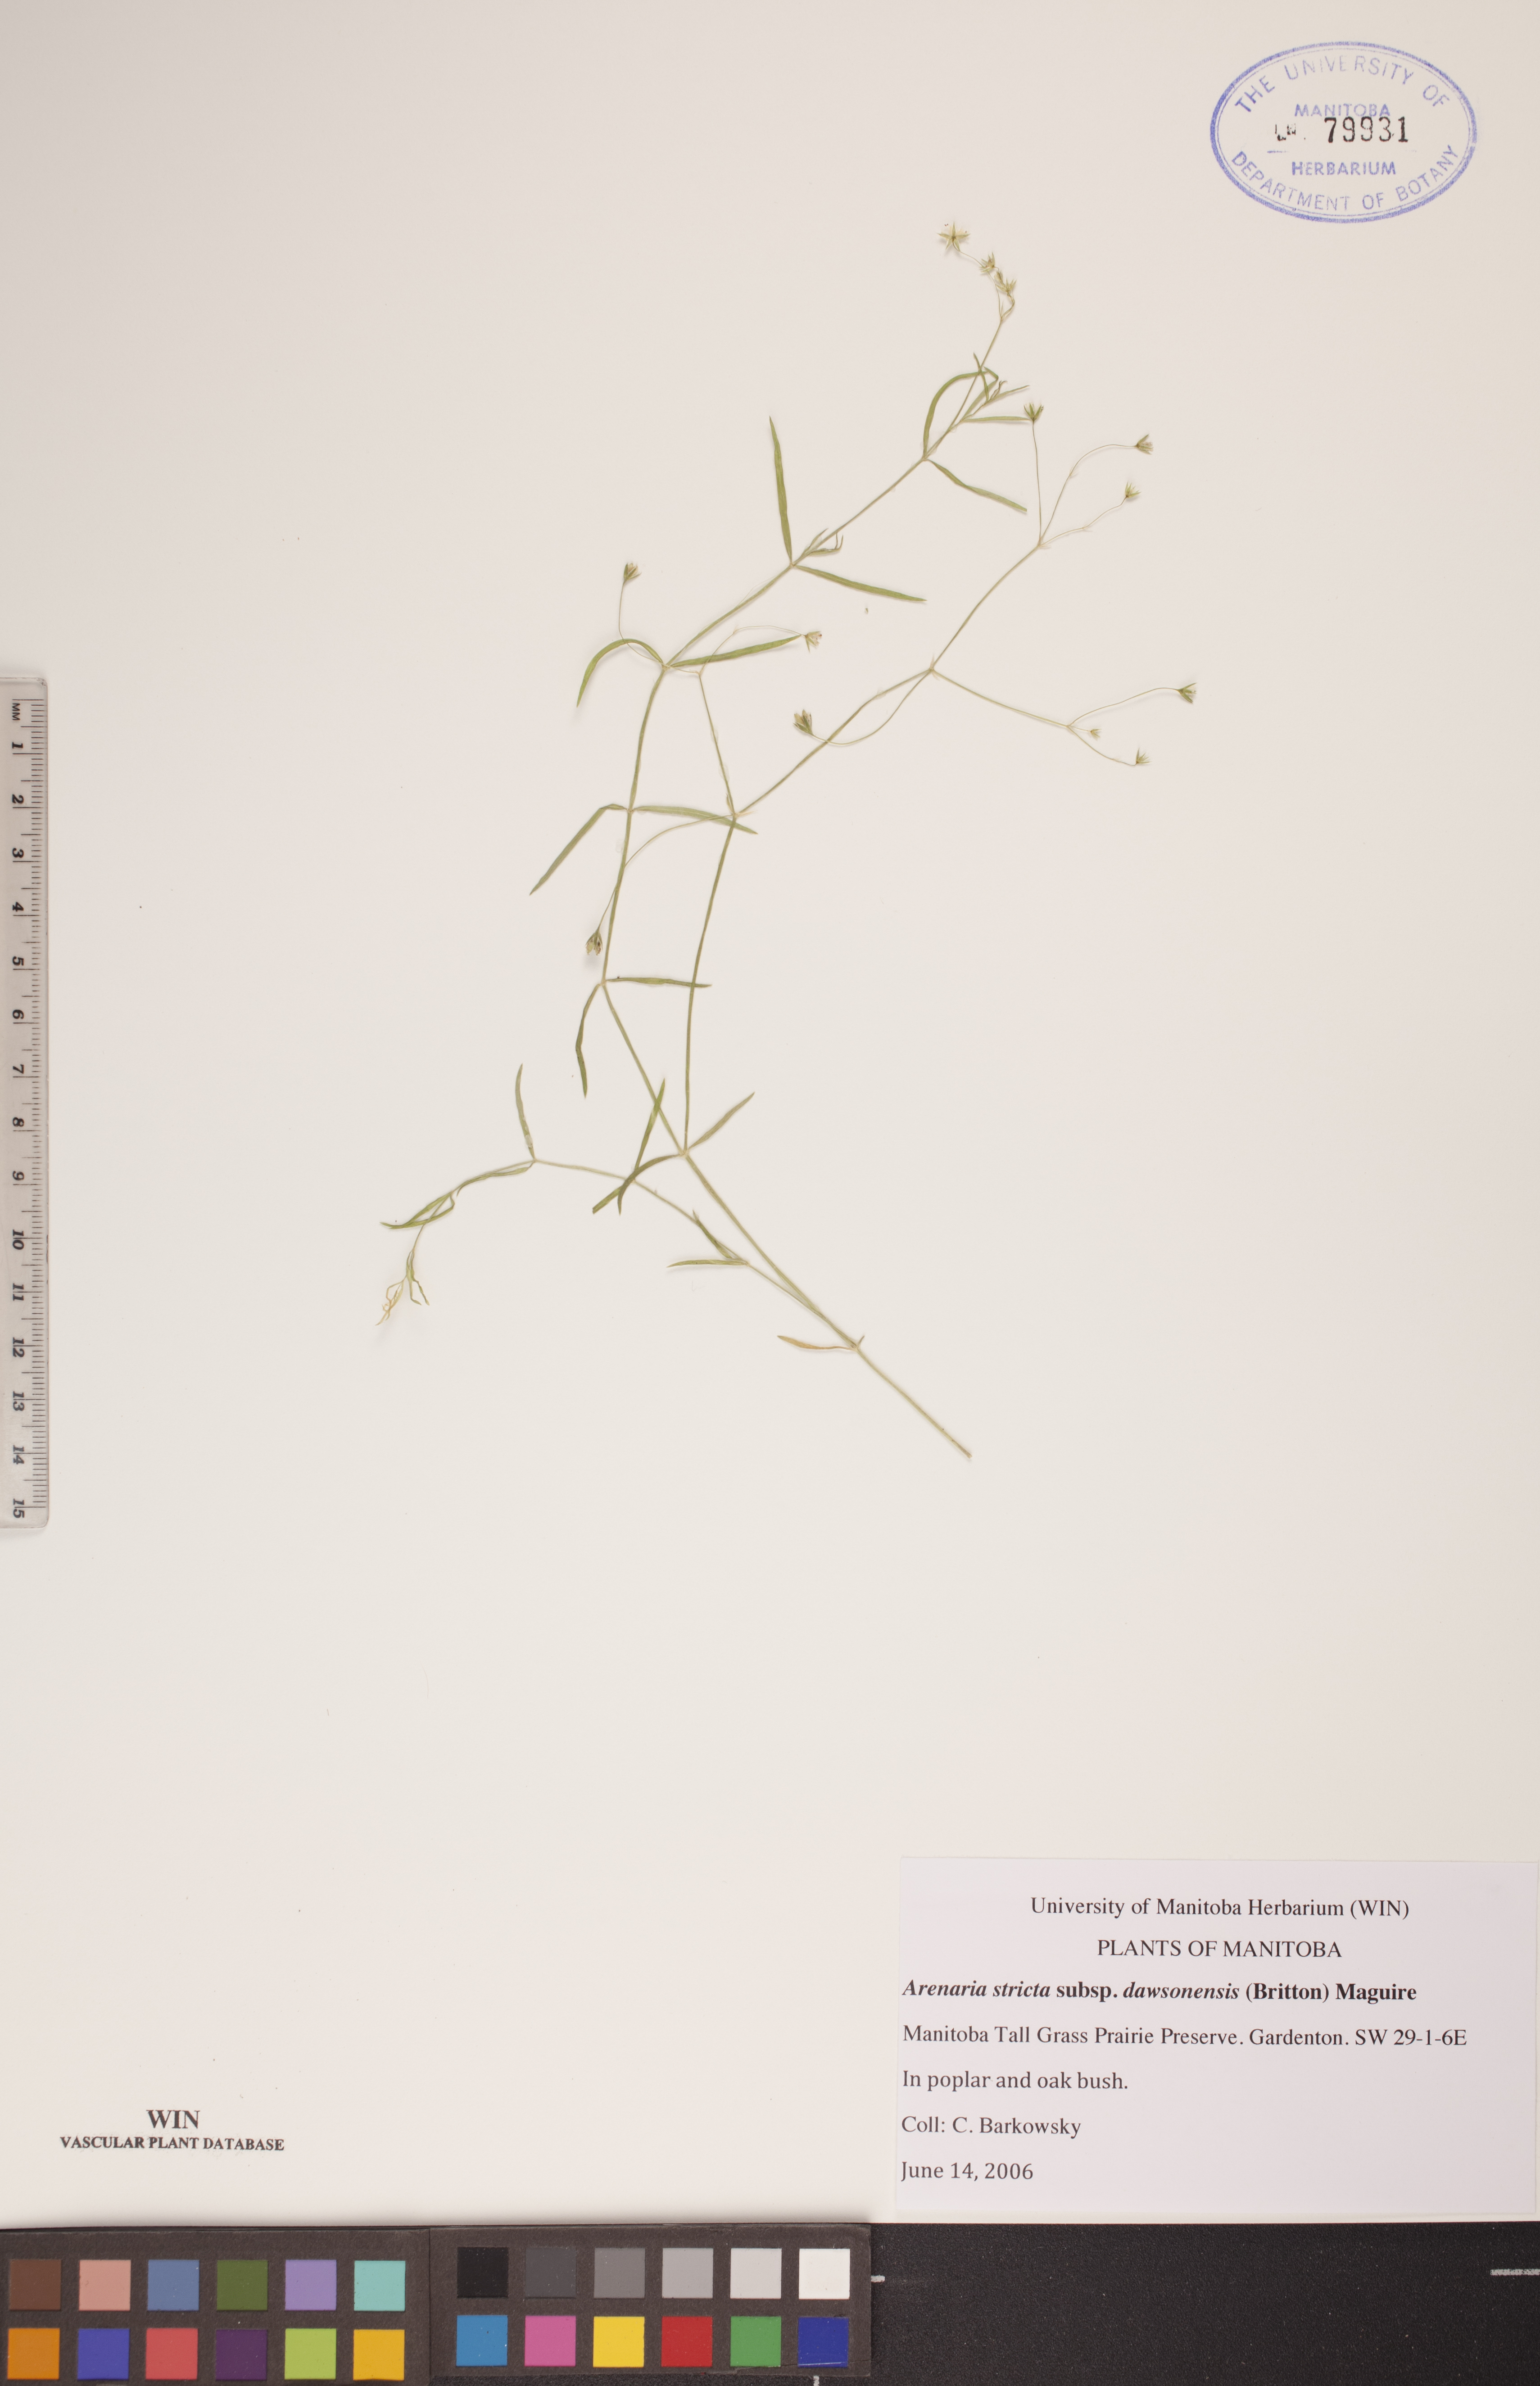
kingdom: Plantae
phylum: Tracheophyta
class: Magnoliopsida
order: Caryophyllales
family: Caryophyllaceae
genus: Sabulina
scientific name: Sabulina dawsonensis
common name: Dawson's cockle
